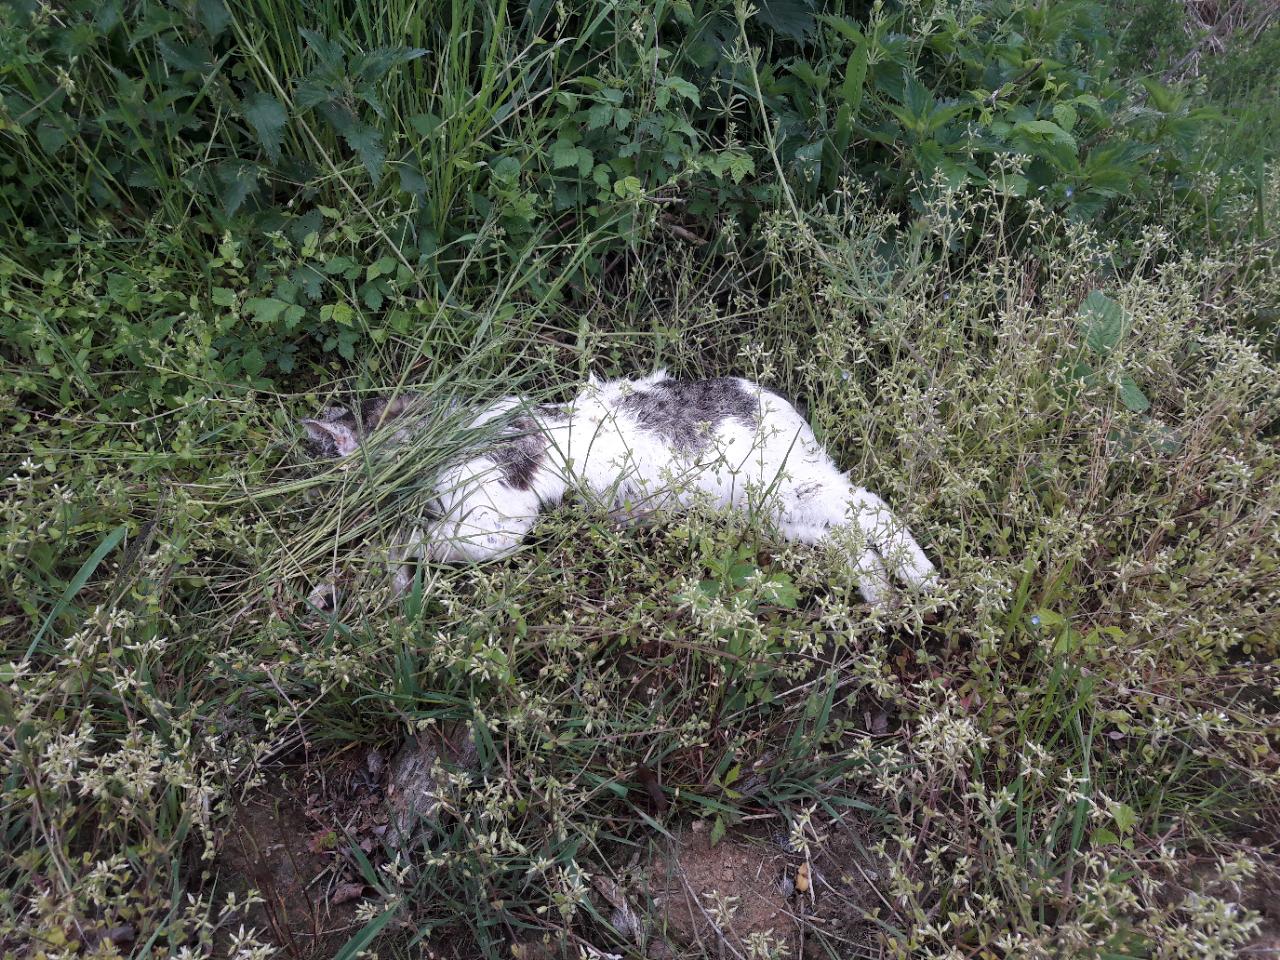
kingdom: Animalia
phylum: Chordata
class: Mammalia
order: Carnivora
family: Felidae
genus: Felis
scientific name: Felis catus
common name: Domestic cat
